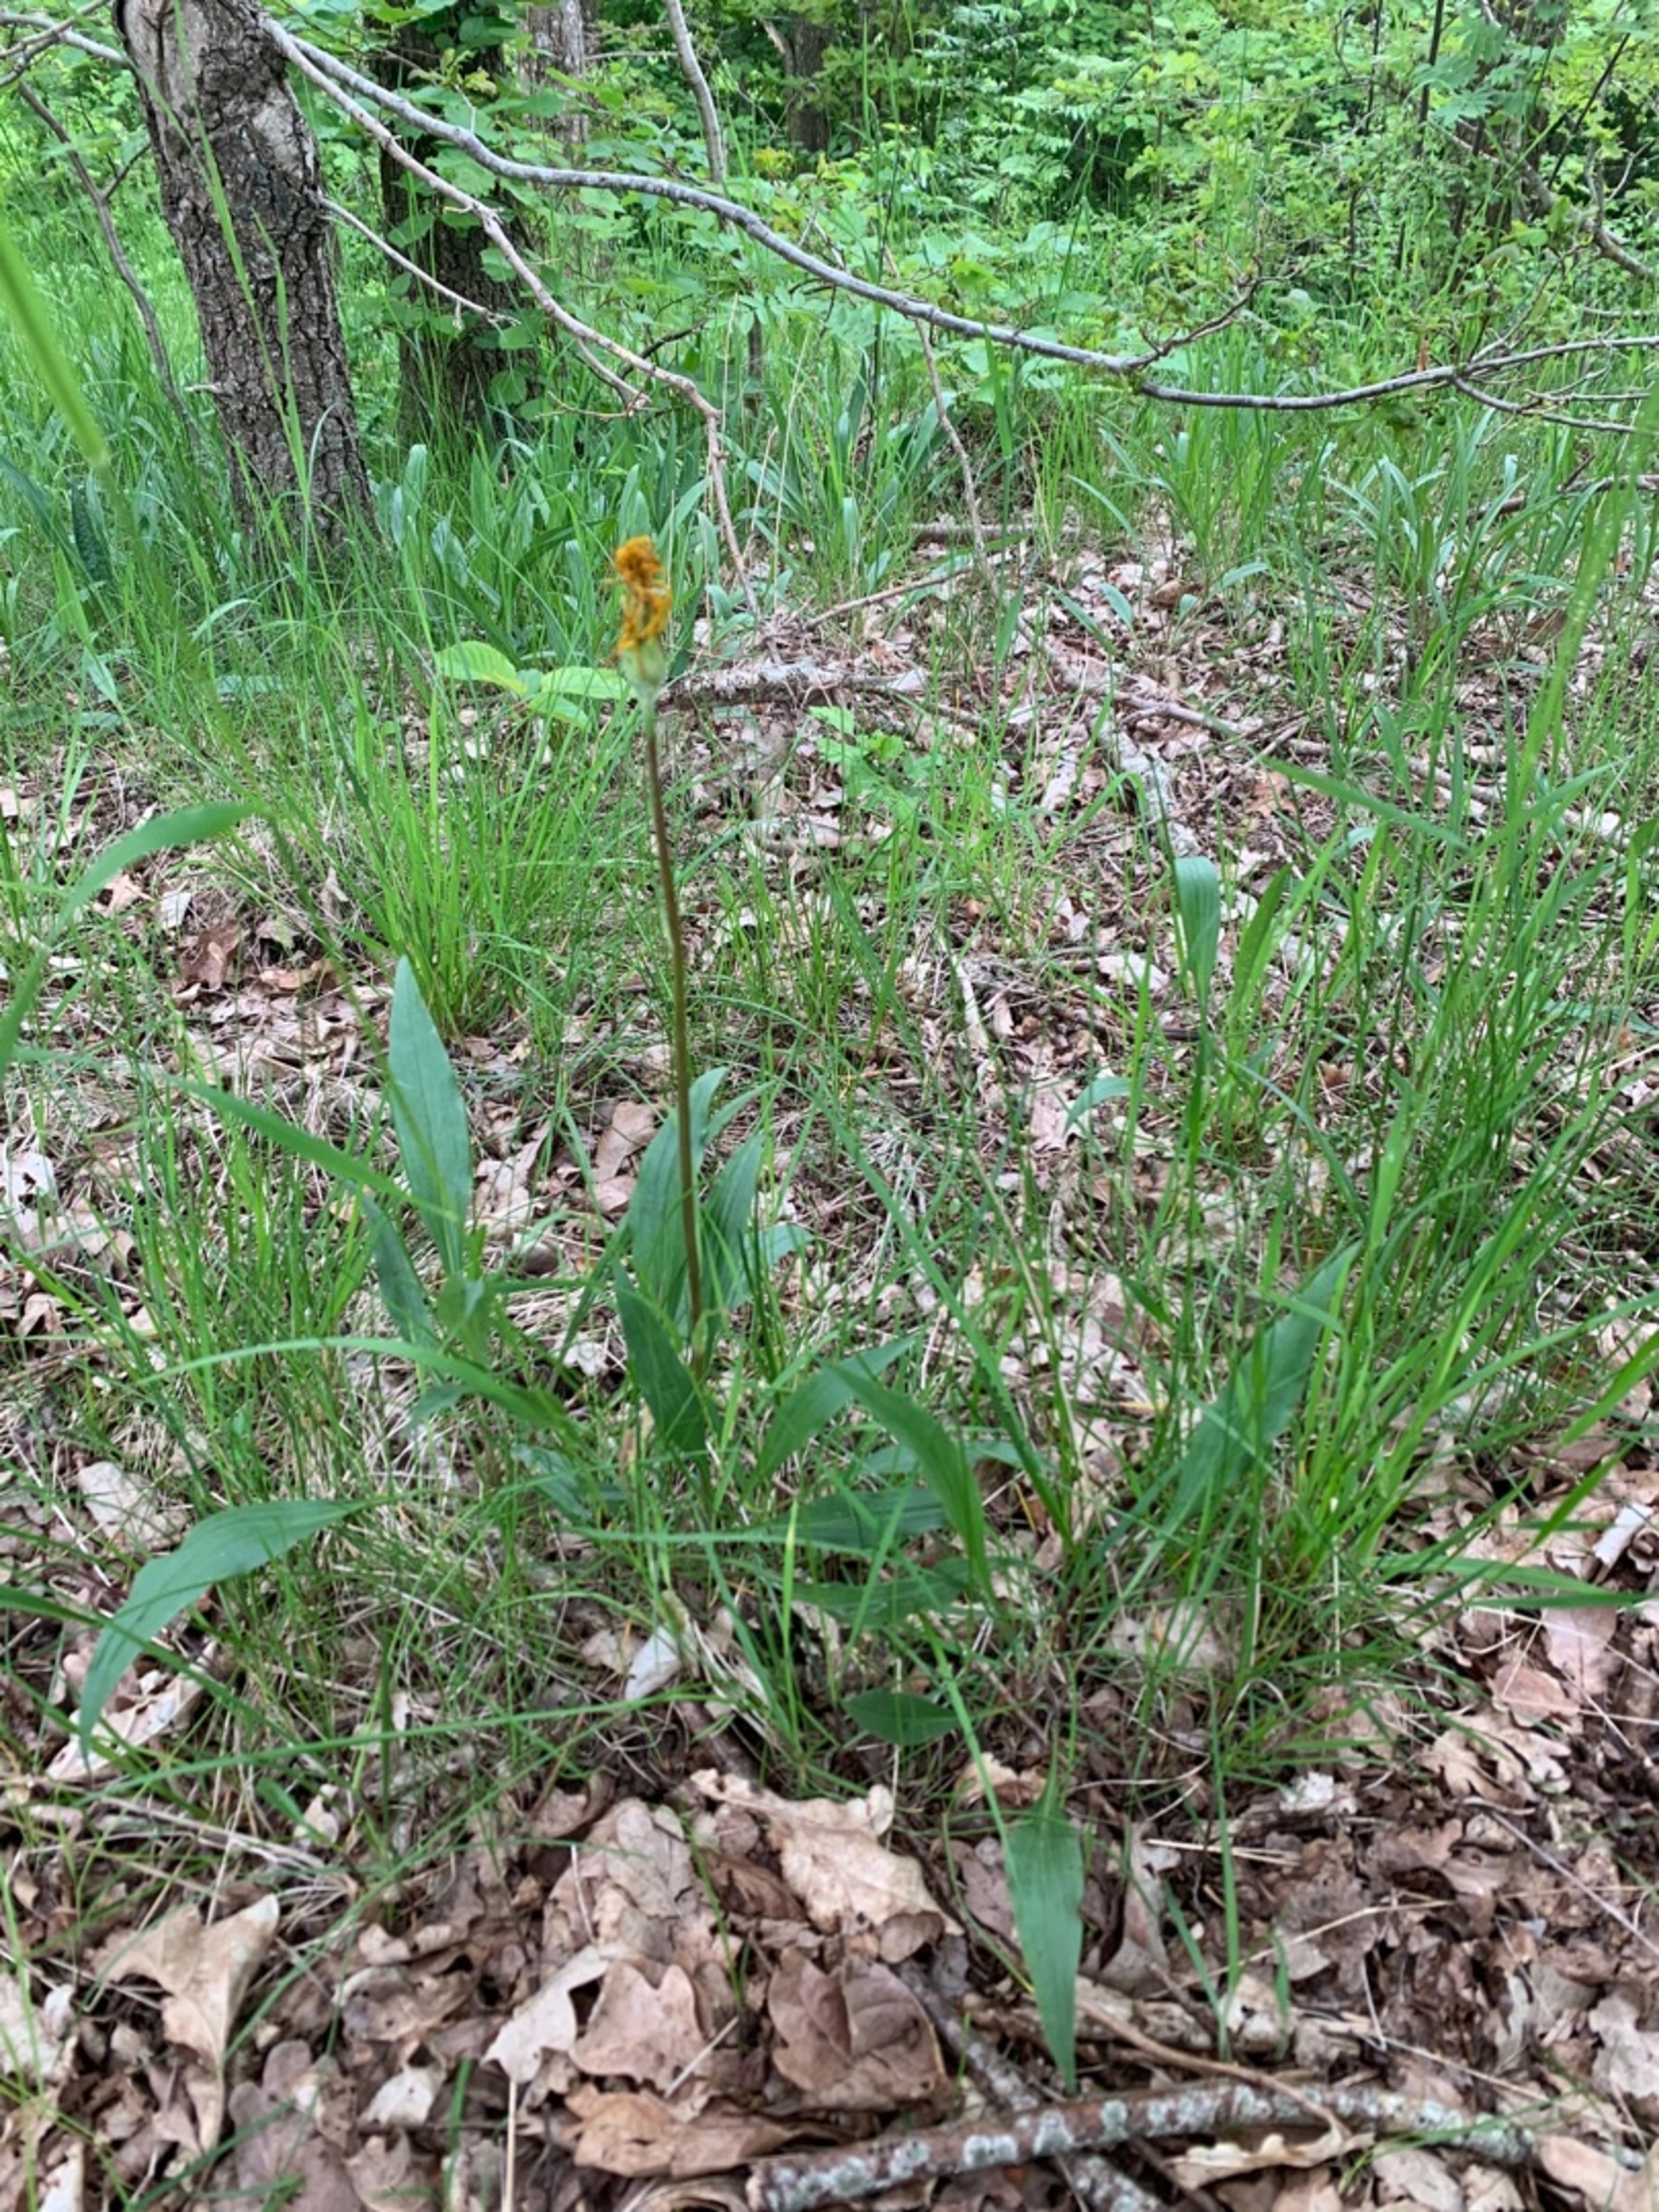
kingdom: Plantae
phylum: Tracheophyta
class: Magnoliopsida
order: Asterales
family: Asteraceae
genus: Scorzonera
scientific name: Scorzonera humilis
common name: Lav skorsoner
